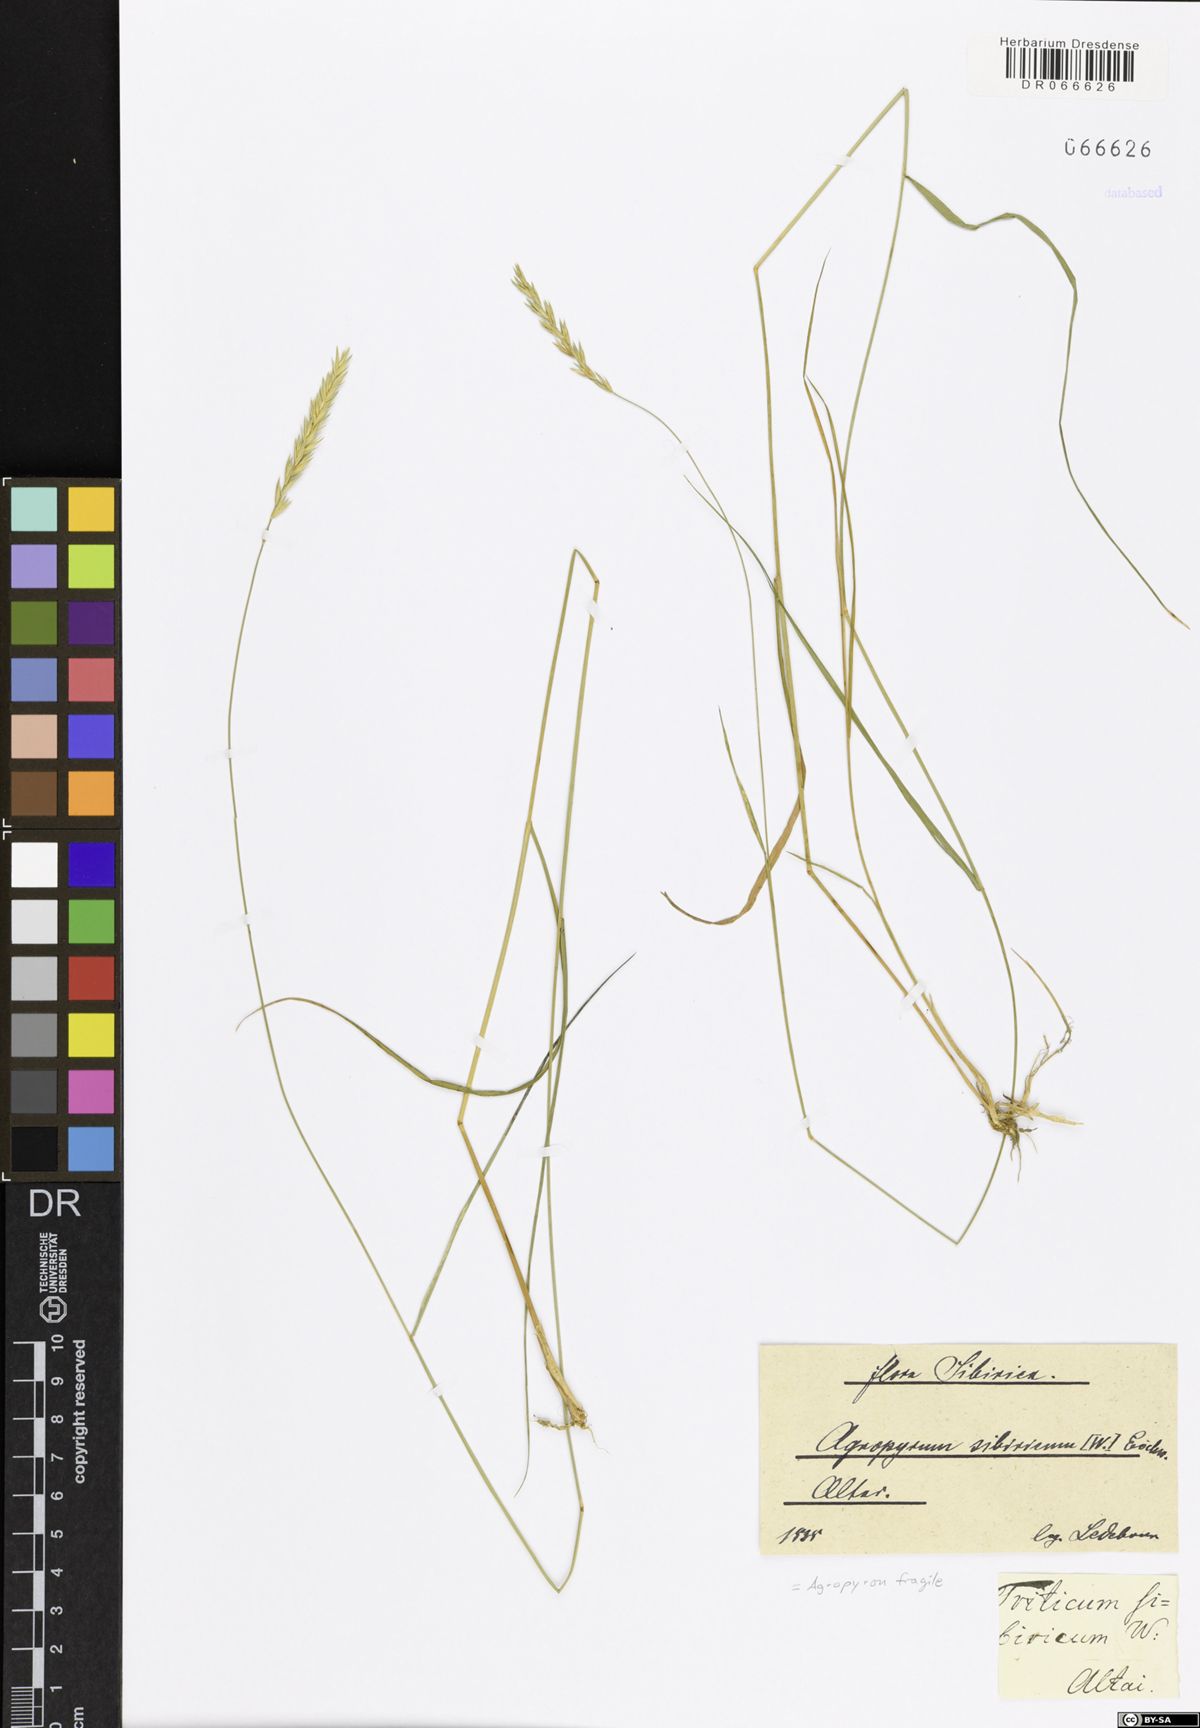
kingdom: Plantae
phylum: Tracheophyta
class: Liliopsida
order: Poales
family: Poaceae
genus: Agropyron
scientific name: Agropyron fragile
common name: Siberian wheatgrass
